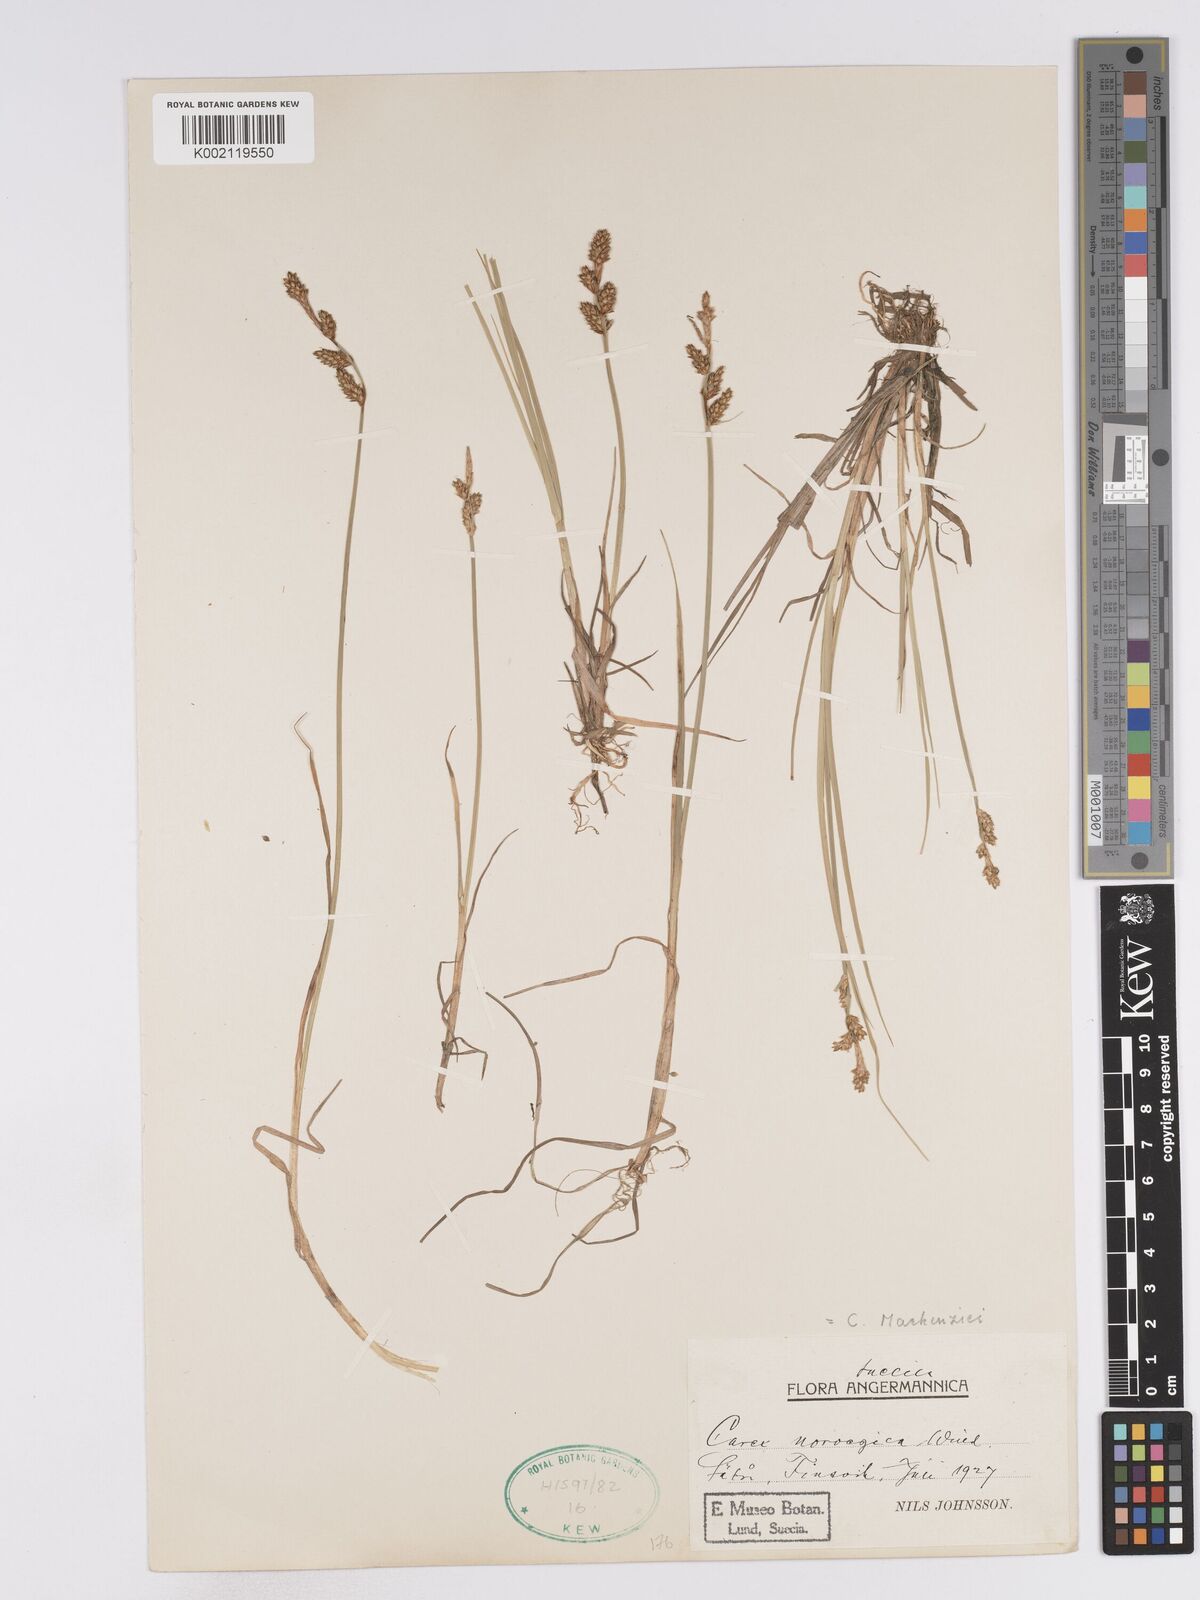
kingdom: Plantae
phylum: Tracheophyta
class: Liliopsida
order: Poales
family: Cyperaceae
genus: Carex
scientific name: Carex mackenziei
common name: Mackenzie's sedge
